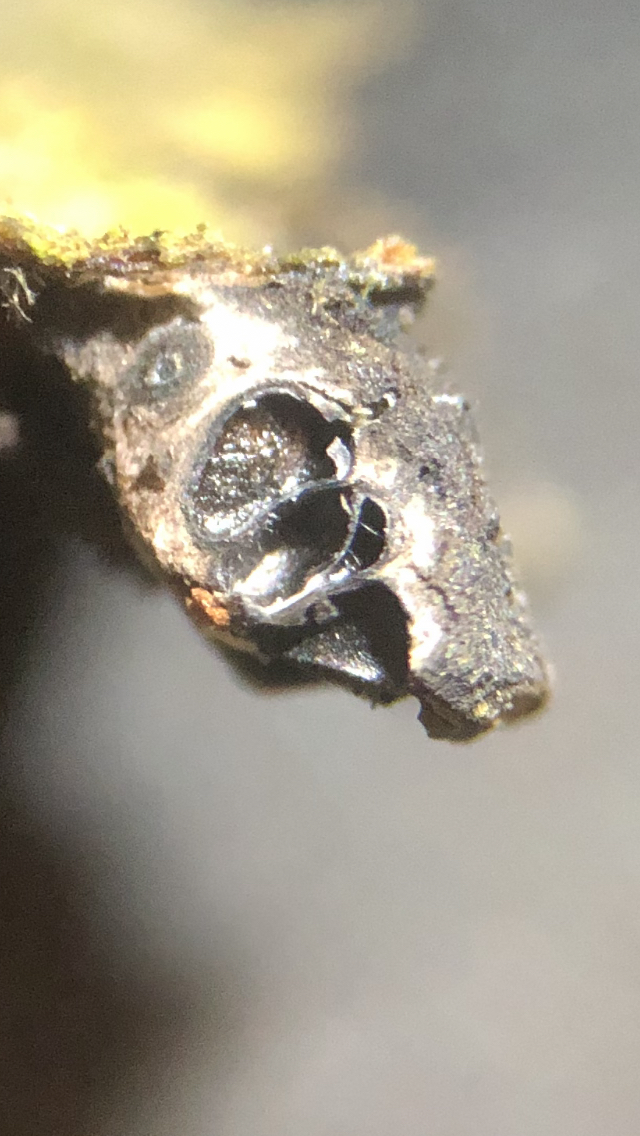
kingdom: Fungi
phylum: Ascomycota
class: Sordariomycetes
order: Xylariales
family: Diatrypaceae
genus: Diatrypella
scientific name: Diatrypella favacea
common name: klemt kulskorpe
